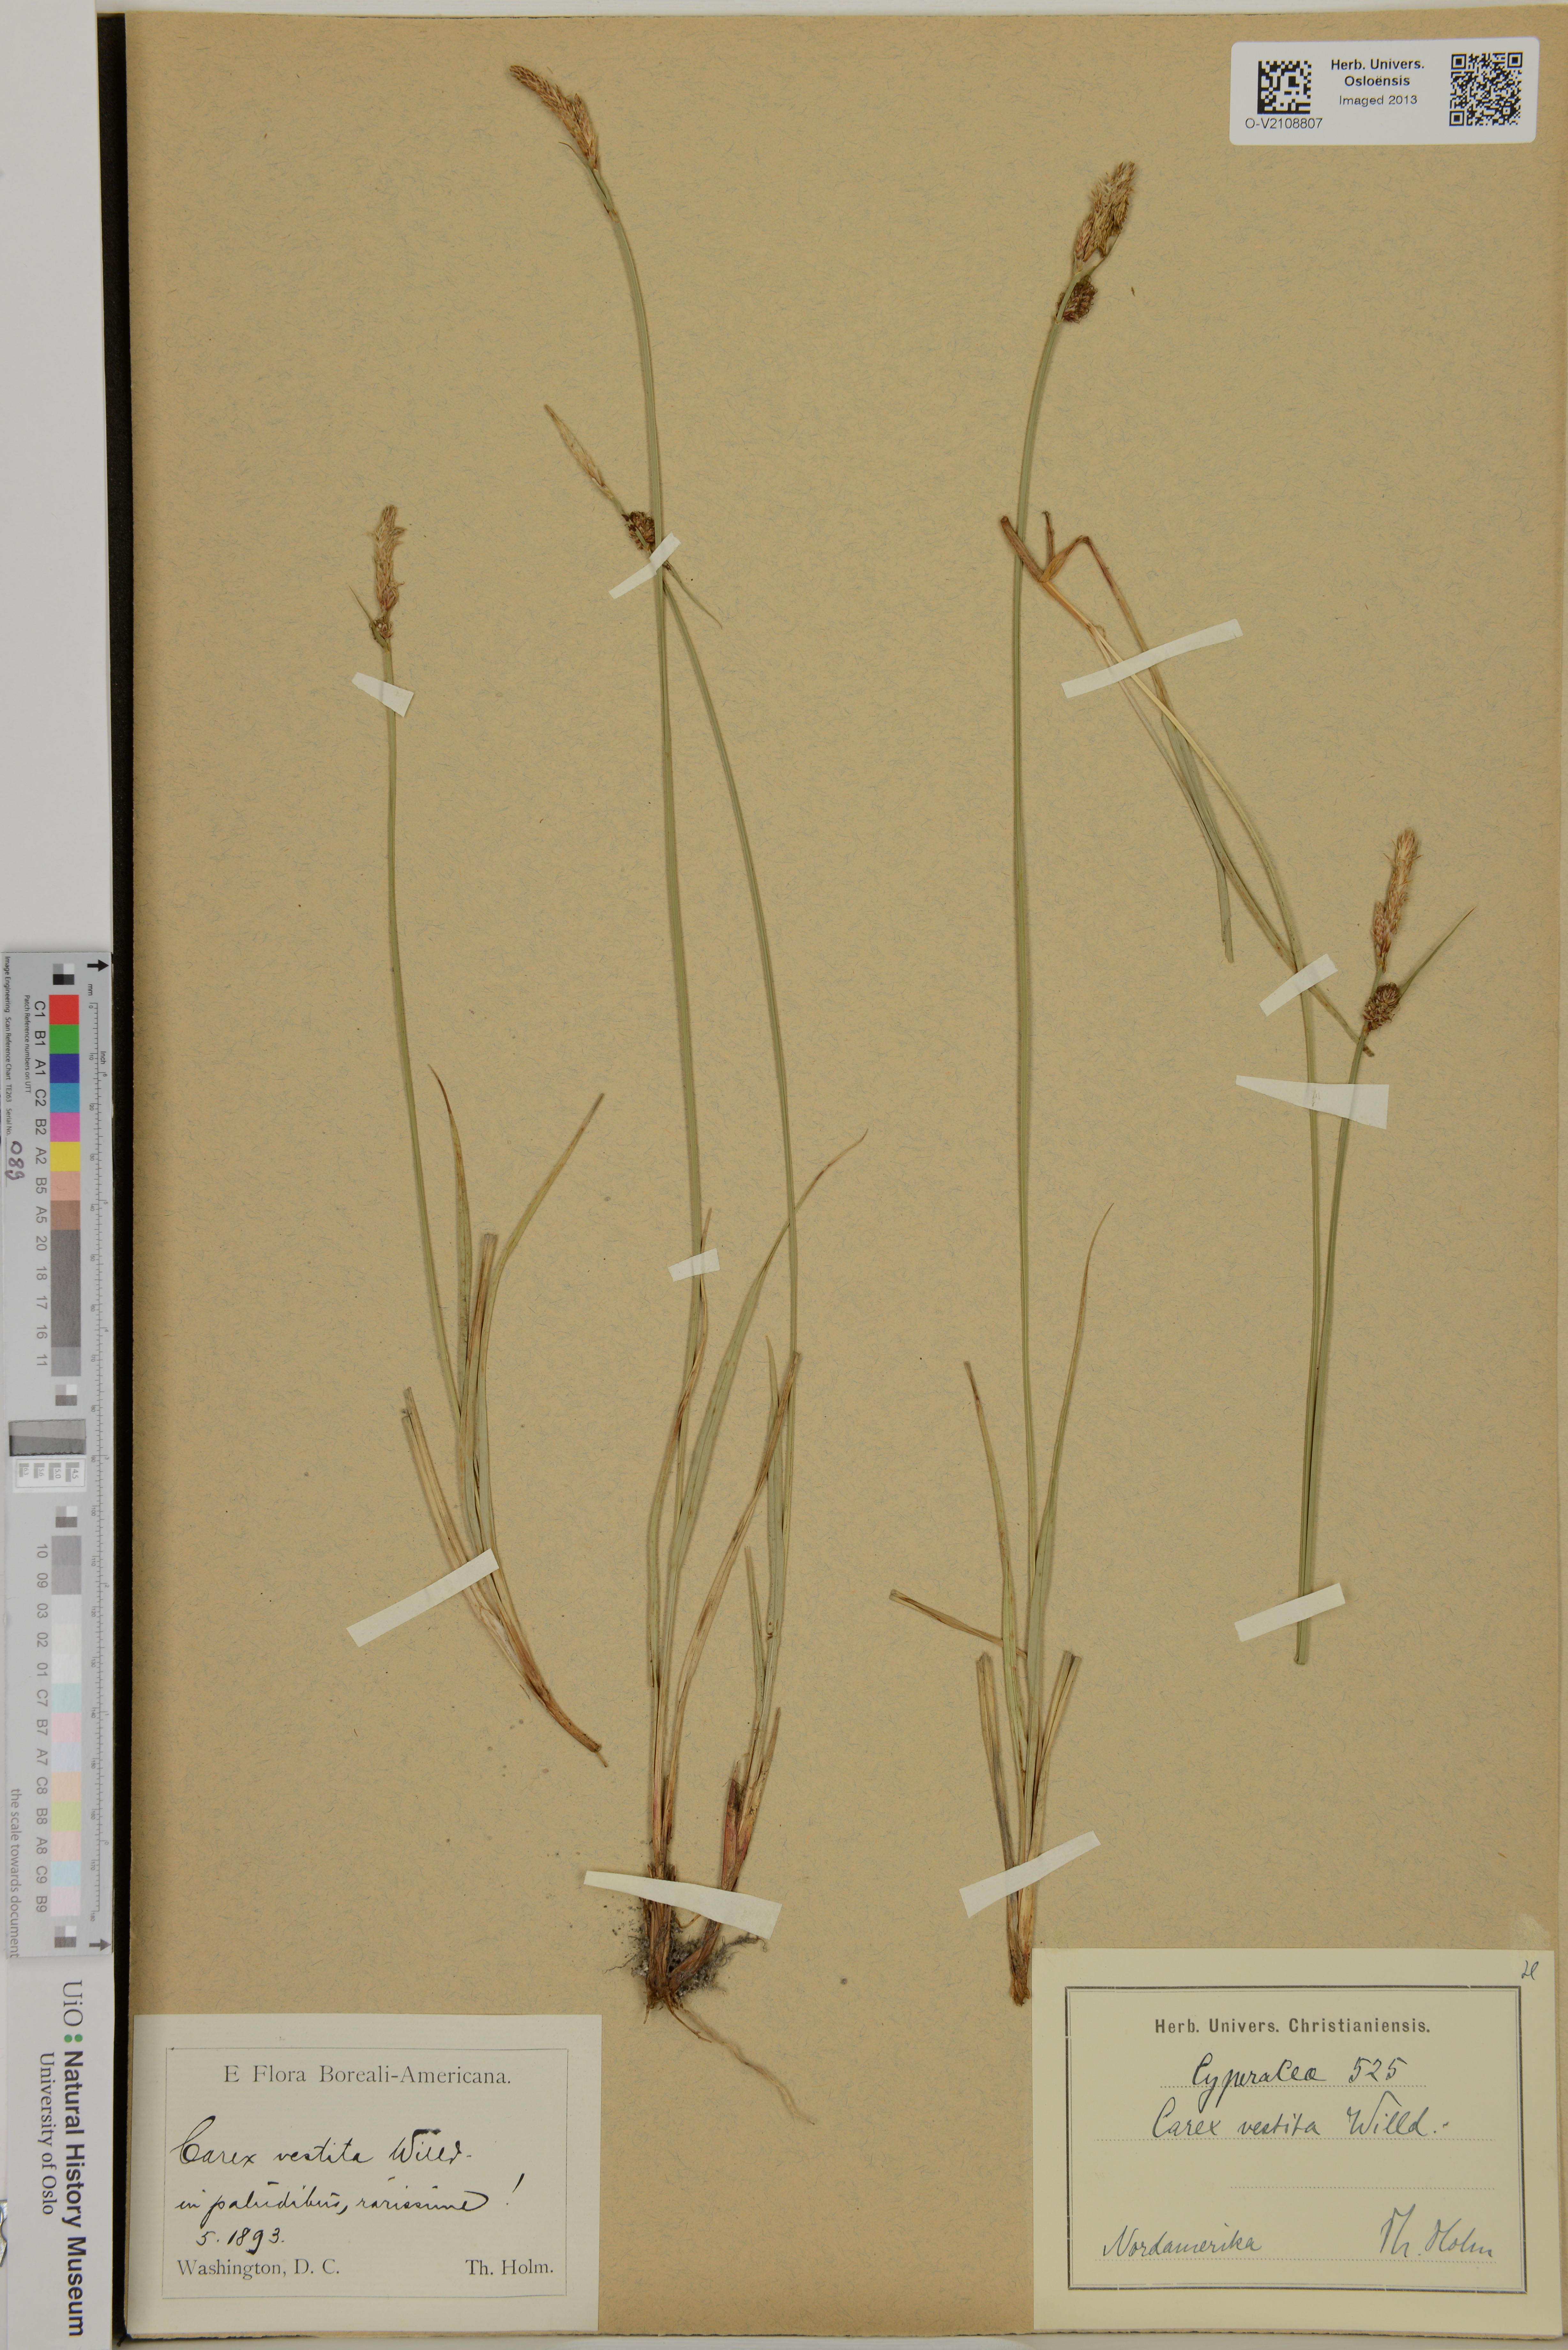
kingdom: Plantae
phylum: Tracheophyta
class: Liliopsida
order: Poales
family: Cyperaceae
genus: Carex
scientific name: Carex vestita
